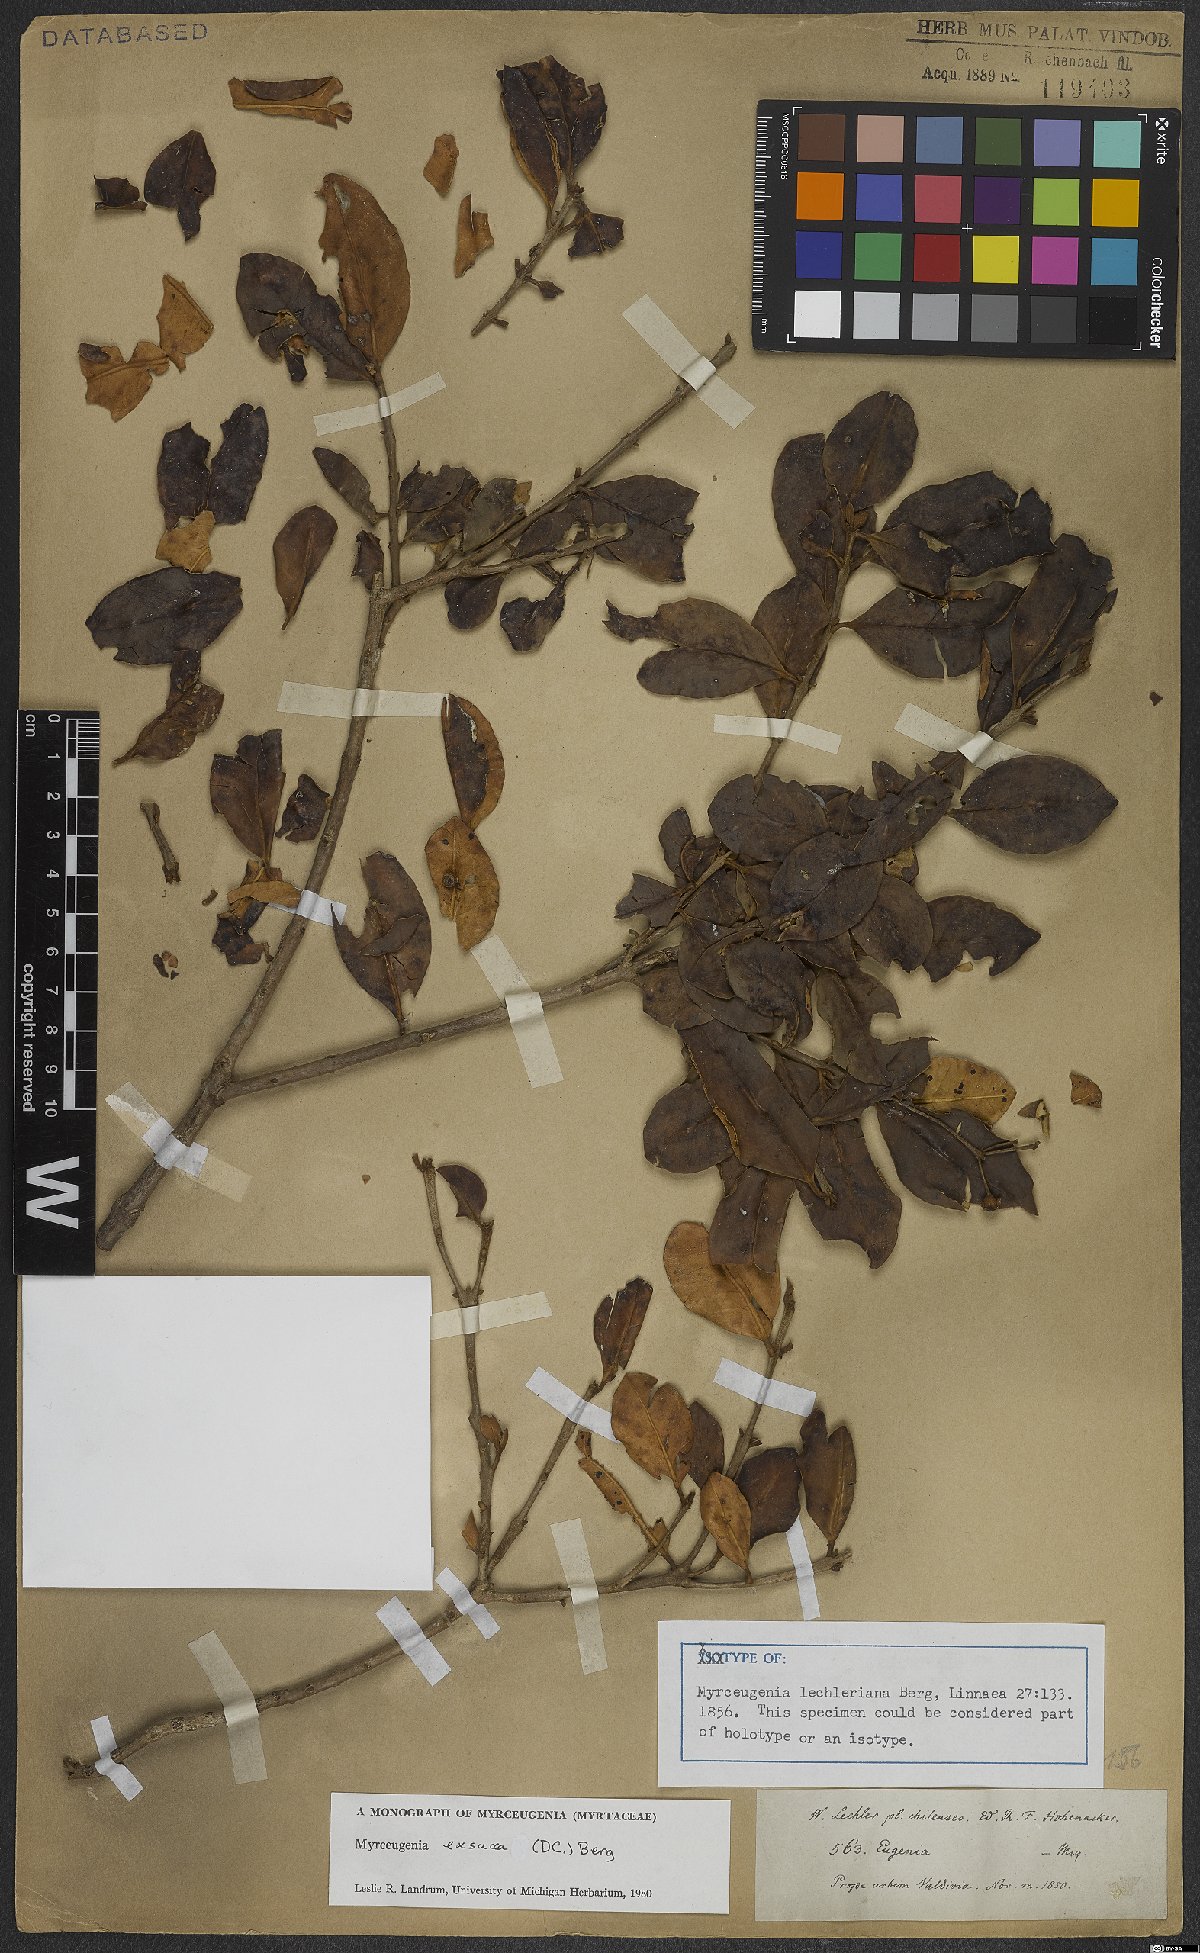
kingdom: Plantae
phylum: Tracheophyta
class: Magnoliopsida
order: Myrtales
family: Myrtaceae
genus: Myrceugenia
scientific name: Myrceugenia exsucca
